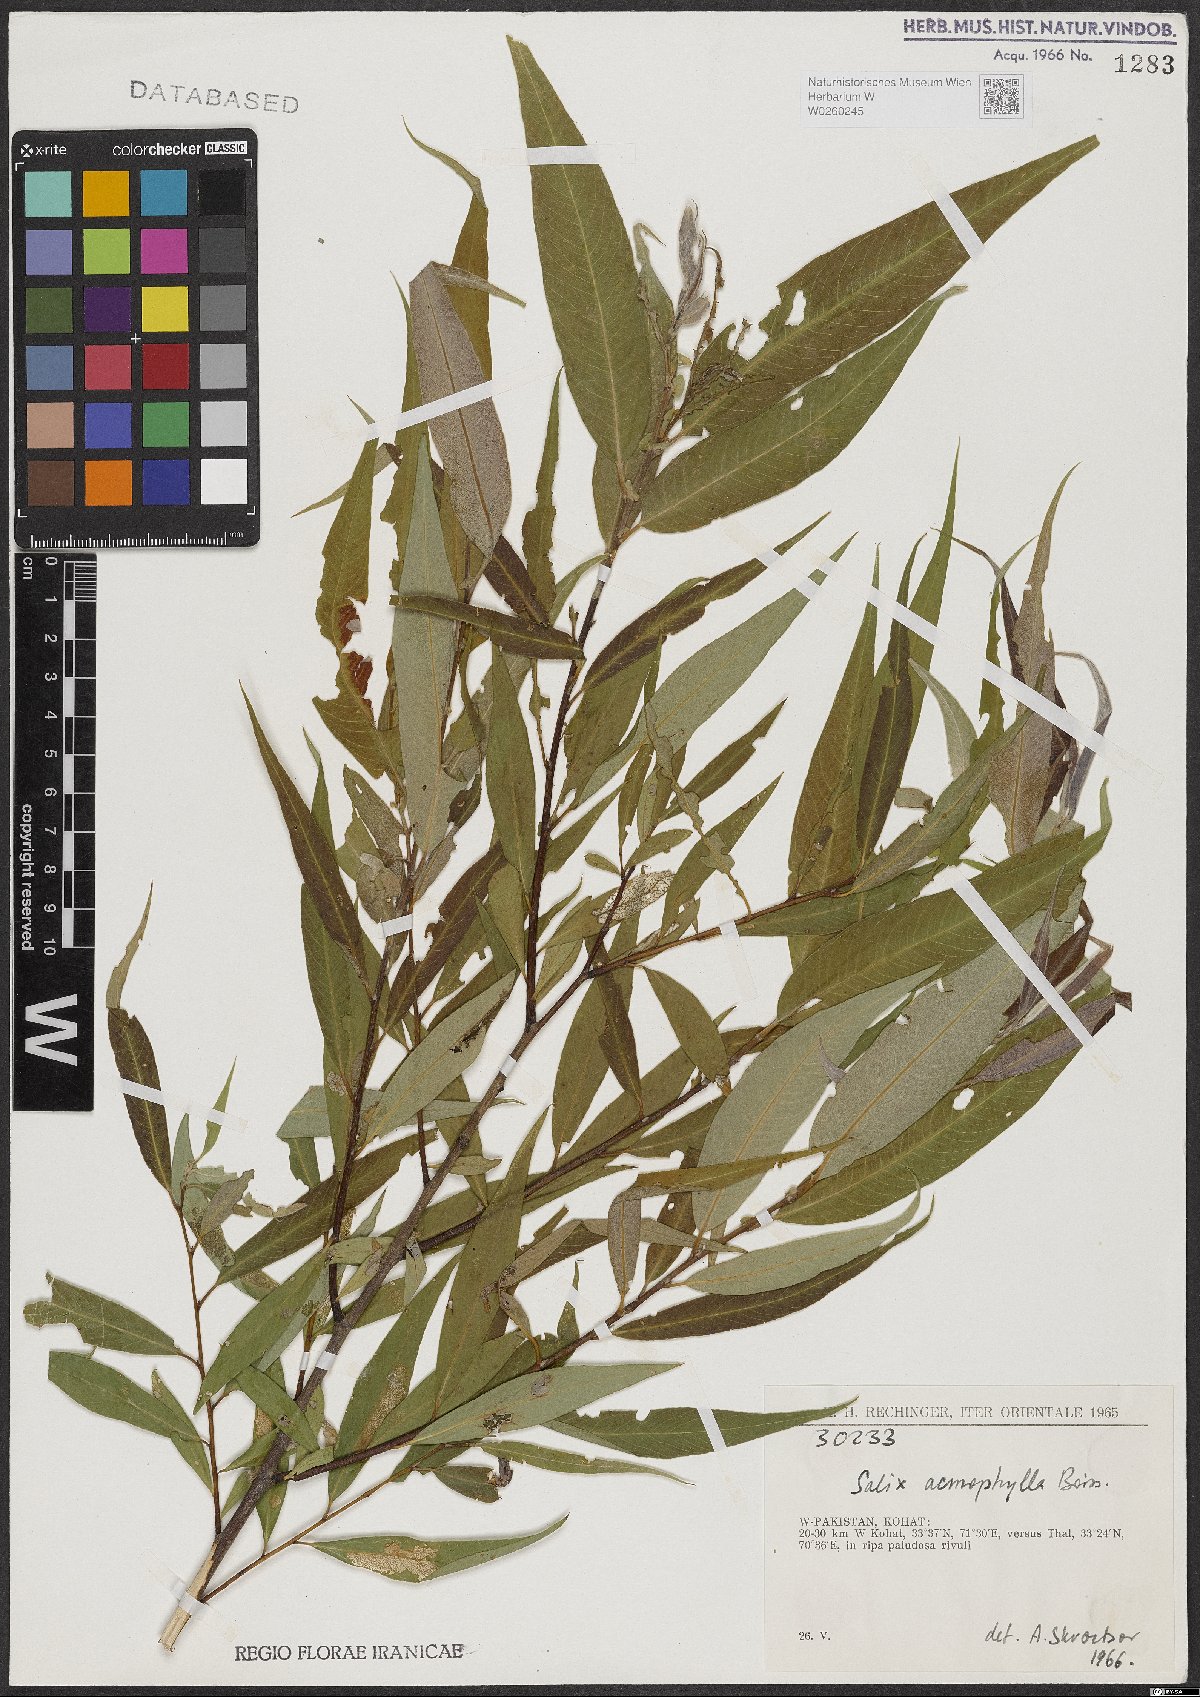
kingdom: Plantae
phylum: Tracheophyta
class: Magnoliopsida
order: Malpighiales
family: Salicaceae
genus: Salix
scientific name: Salix acmophylla
